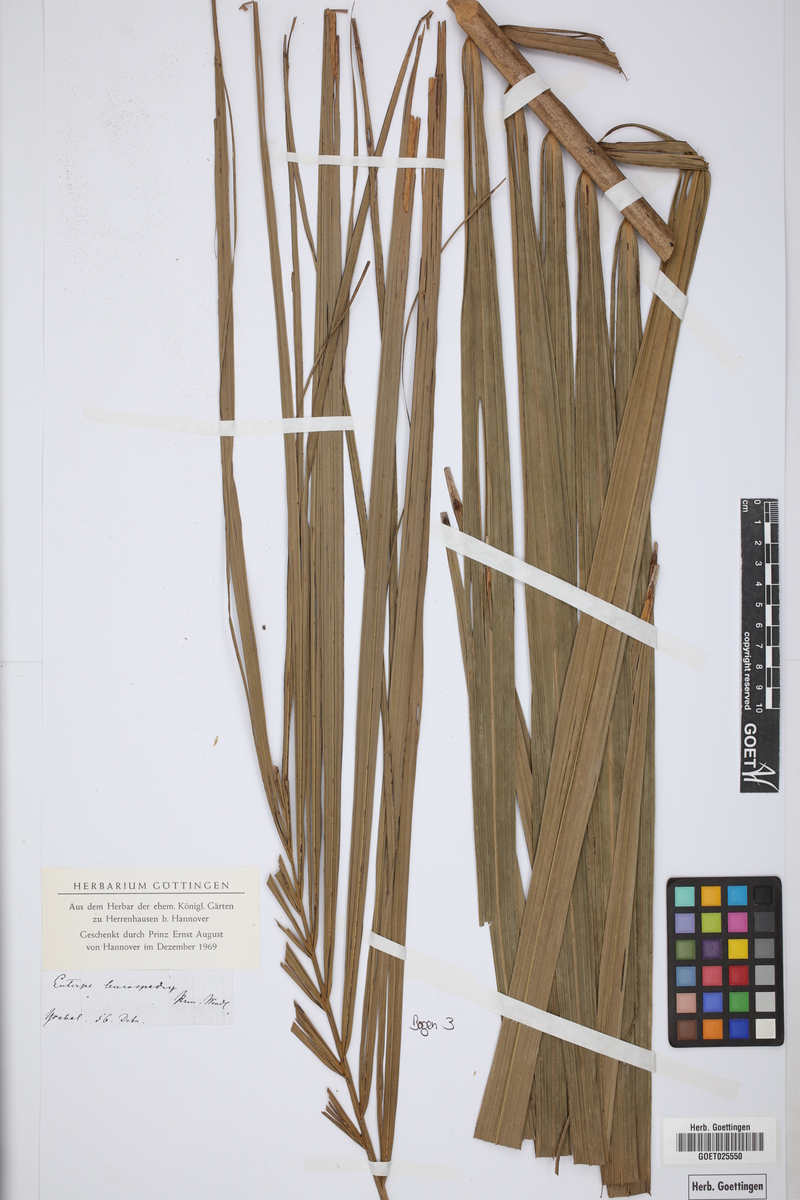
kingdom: Plantae
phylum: Tracheophyta
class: Liliopsida
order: Arecales
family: Arecaceae
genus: Euterpe
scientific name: Euterpe precatoria
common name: Mountain-cabbage
